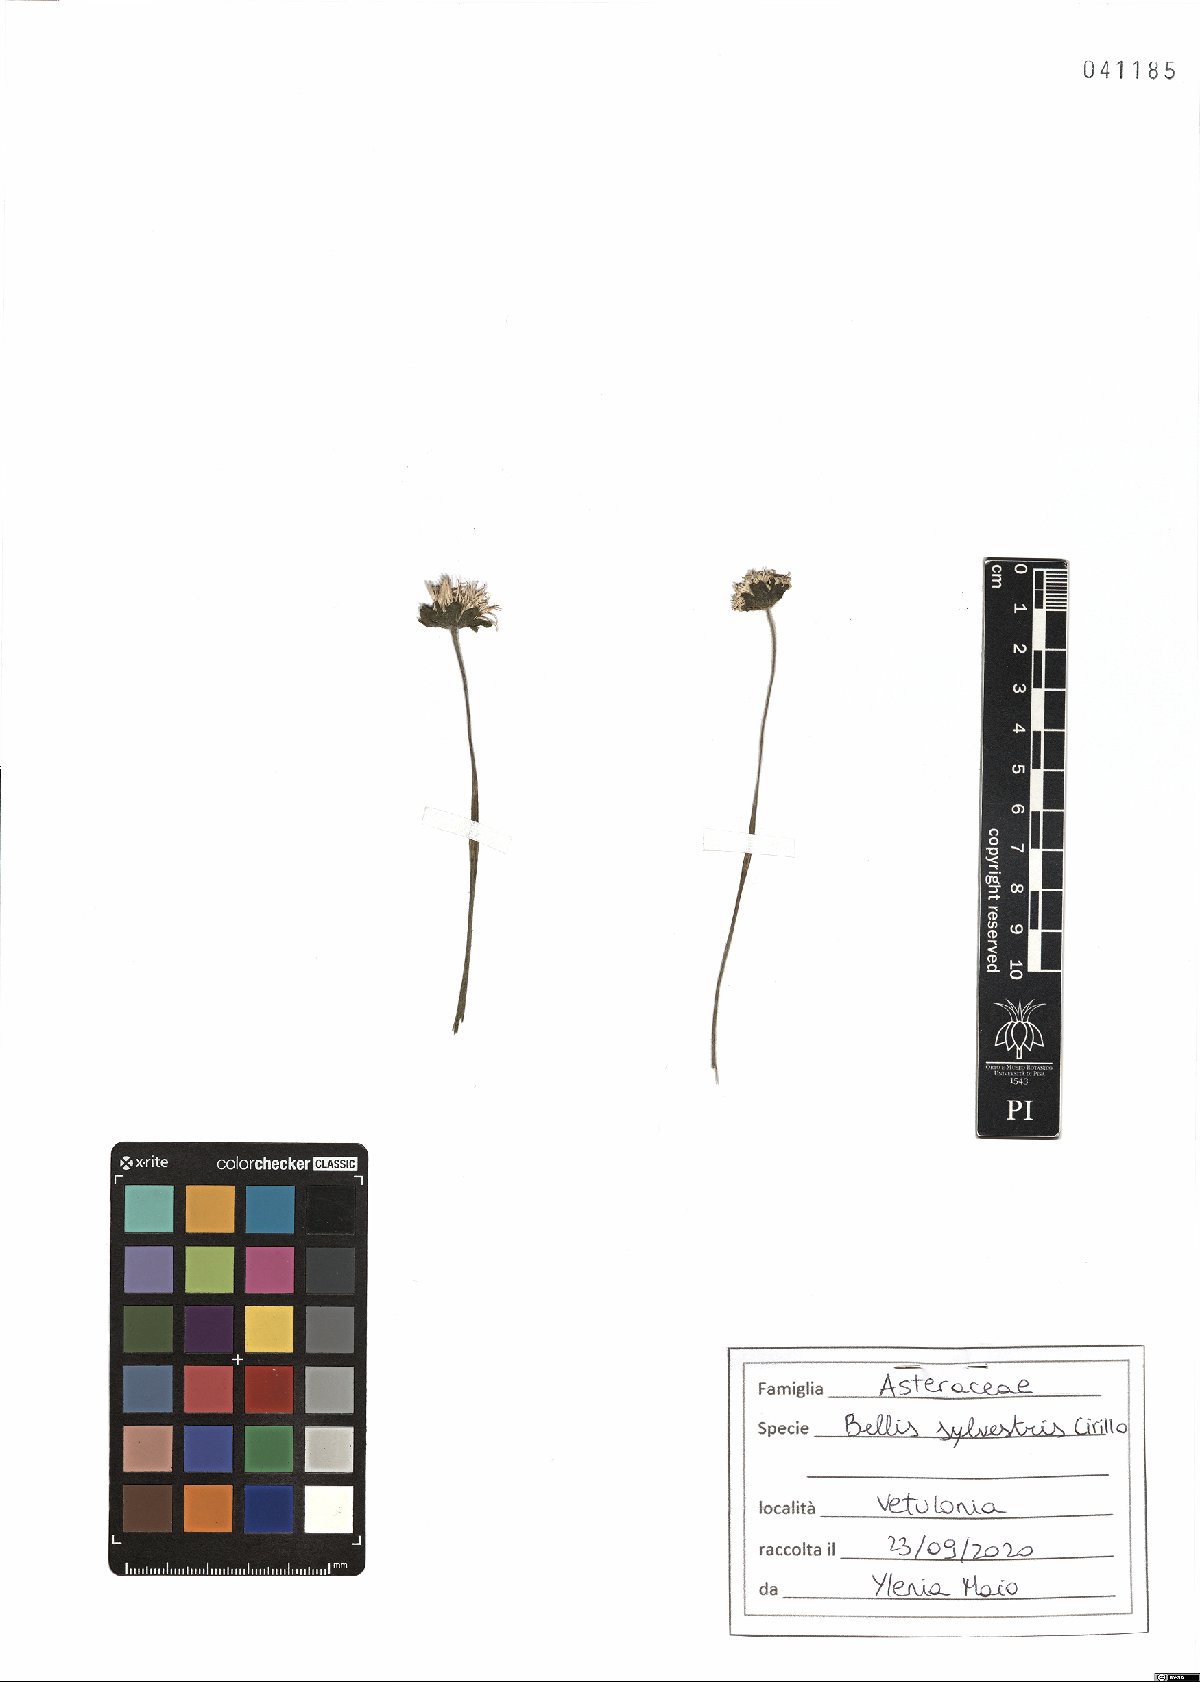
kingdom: Plantae
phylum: Tracheophyta
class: Magnoliopsida
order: Asterales
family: Asteraceae
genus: Bellis
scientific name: Bellis sylvestris
